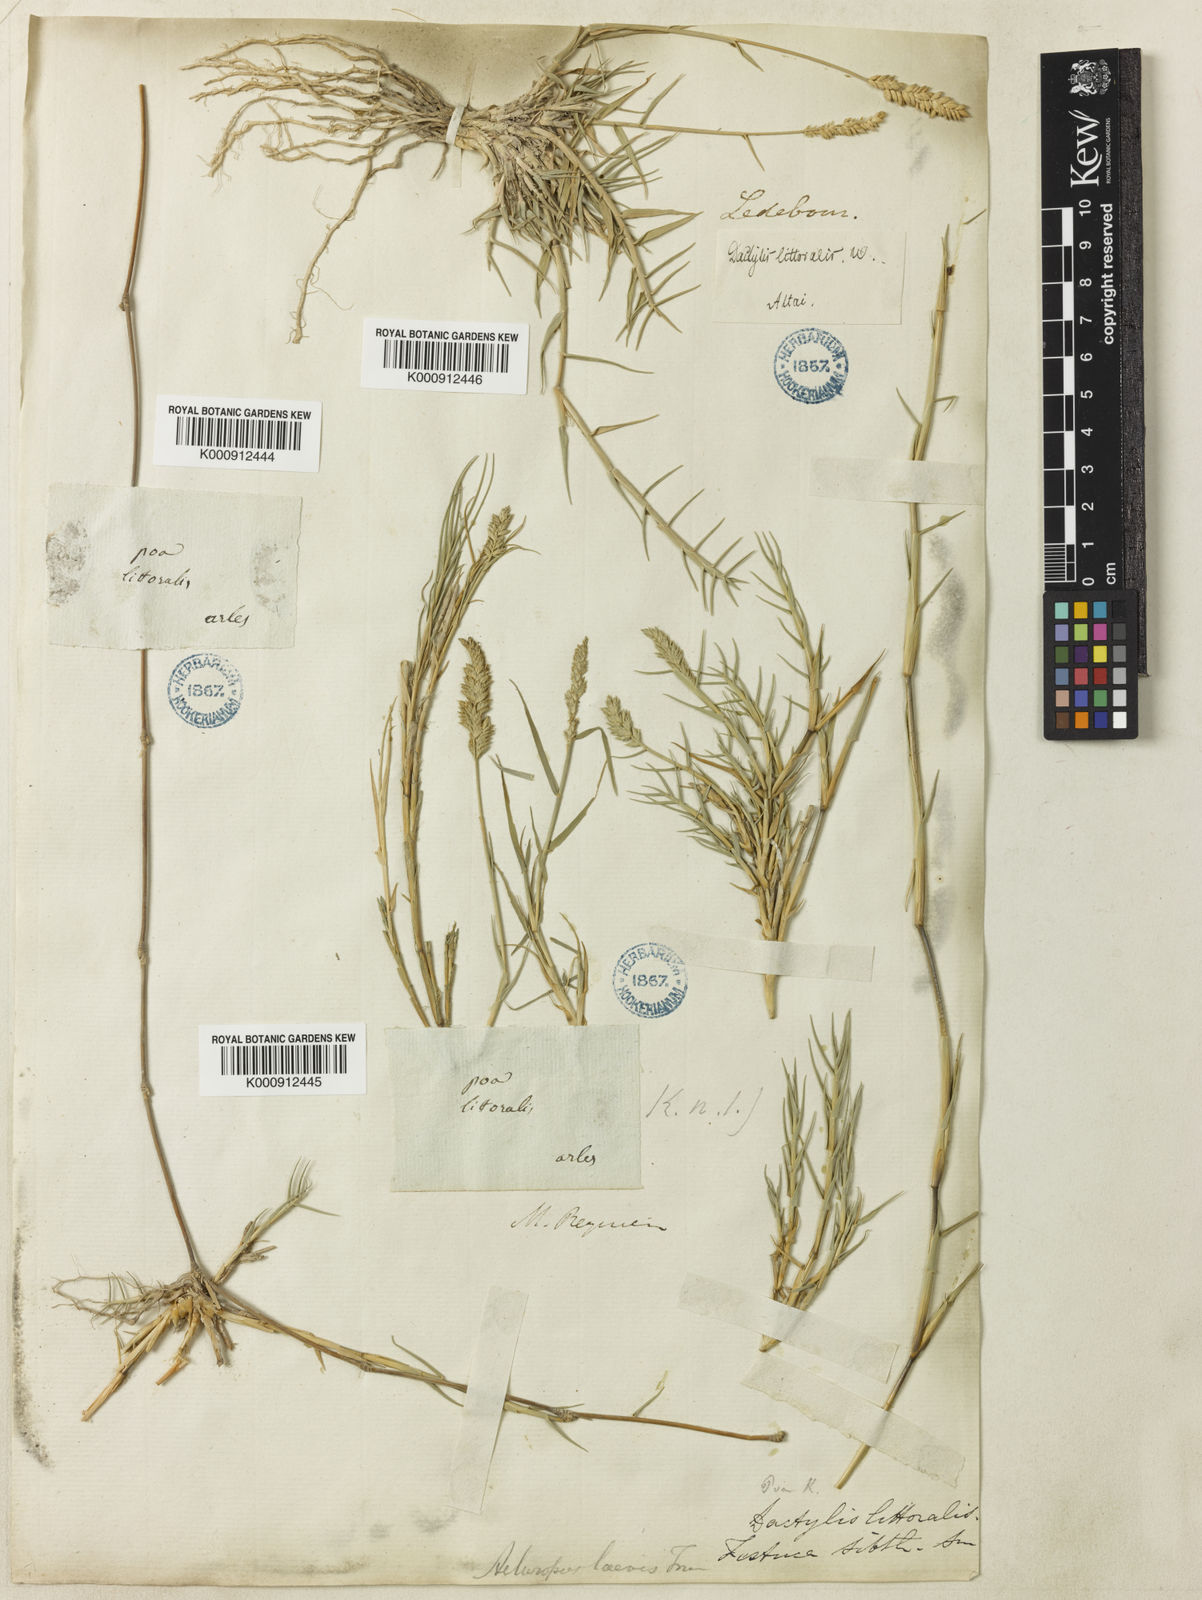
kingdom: Plantae
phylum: Tracheophyta
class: Liliopsida
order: Poales
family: Poaceae
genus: Aeluropus
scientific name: Aeluropus littoralis
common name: Indian walnut
